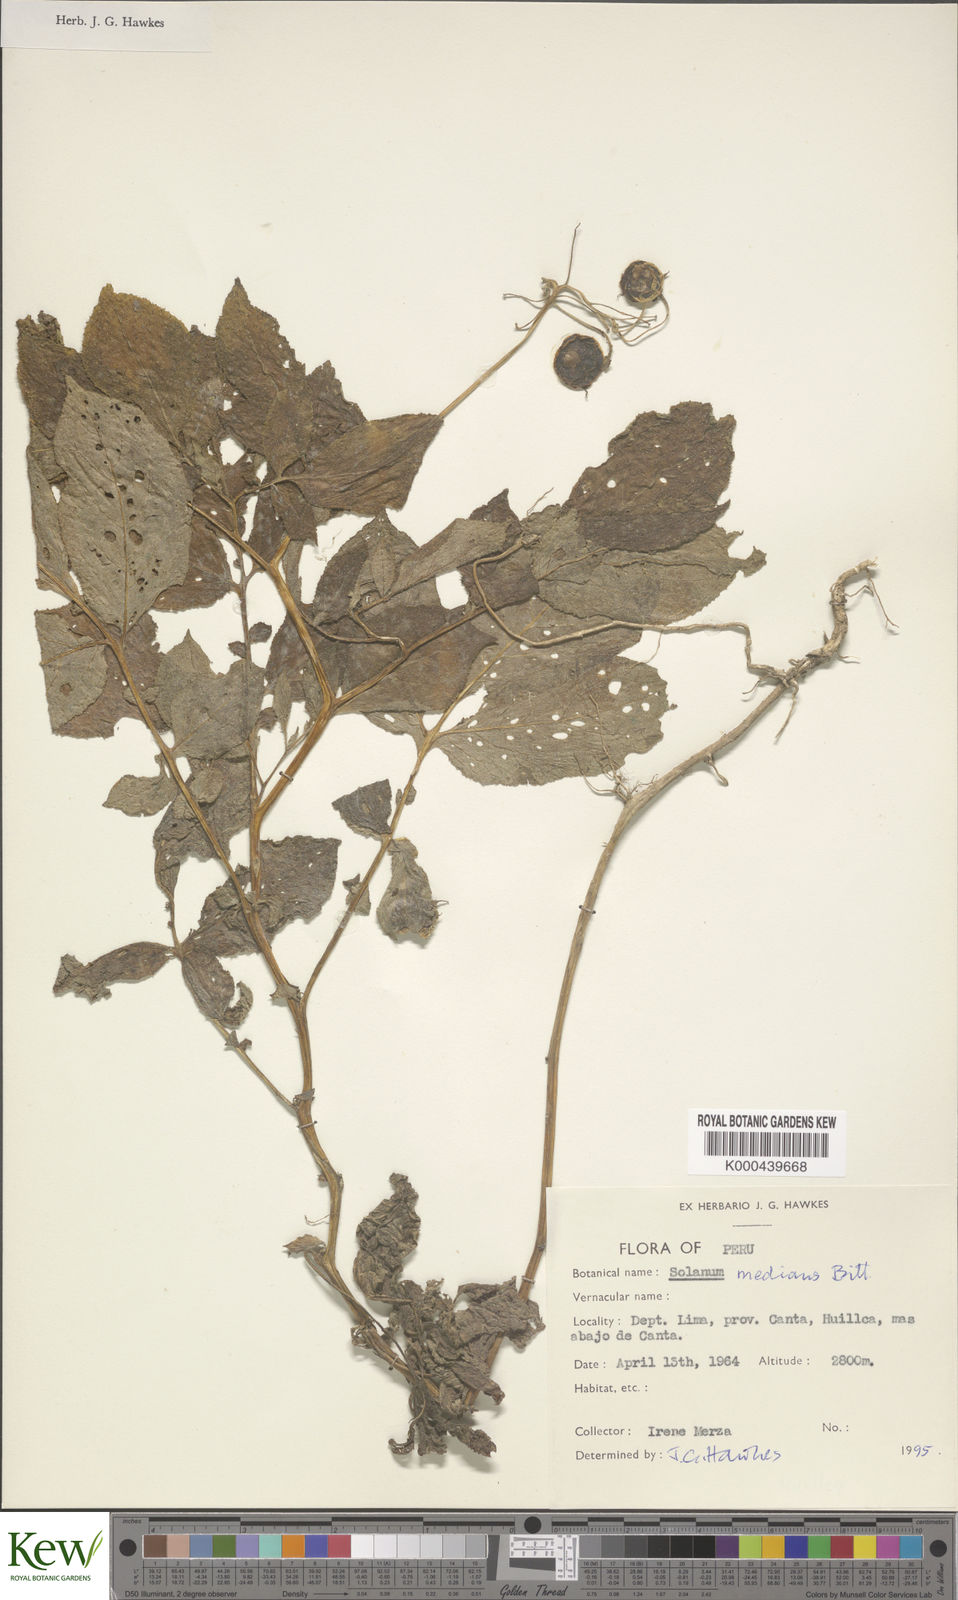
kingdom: Plantae
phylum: Tracheophyta
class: Magnoliopsida
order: Solanales
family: Solanaceae
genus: Solanum
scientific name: Solanum medians
